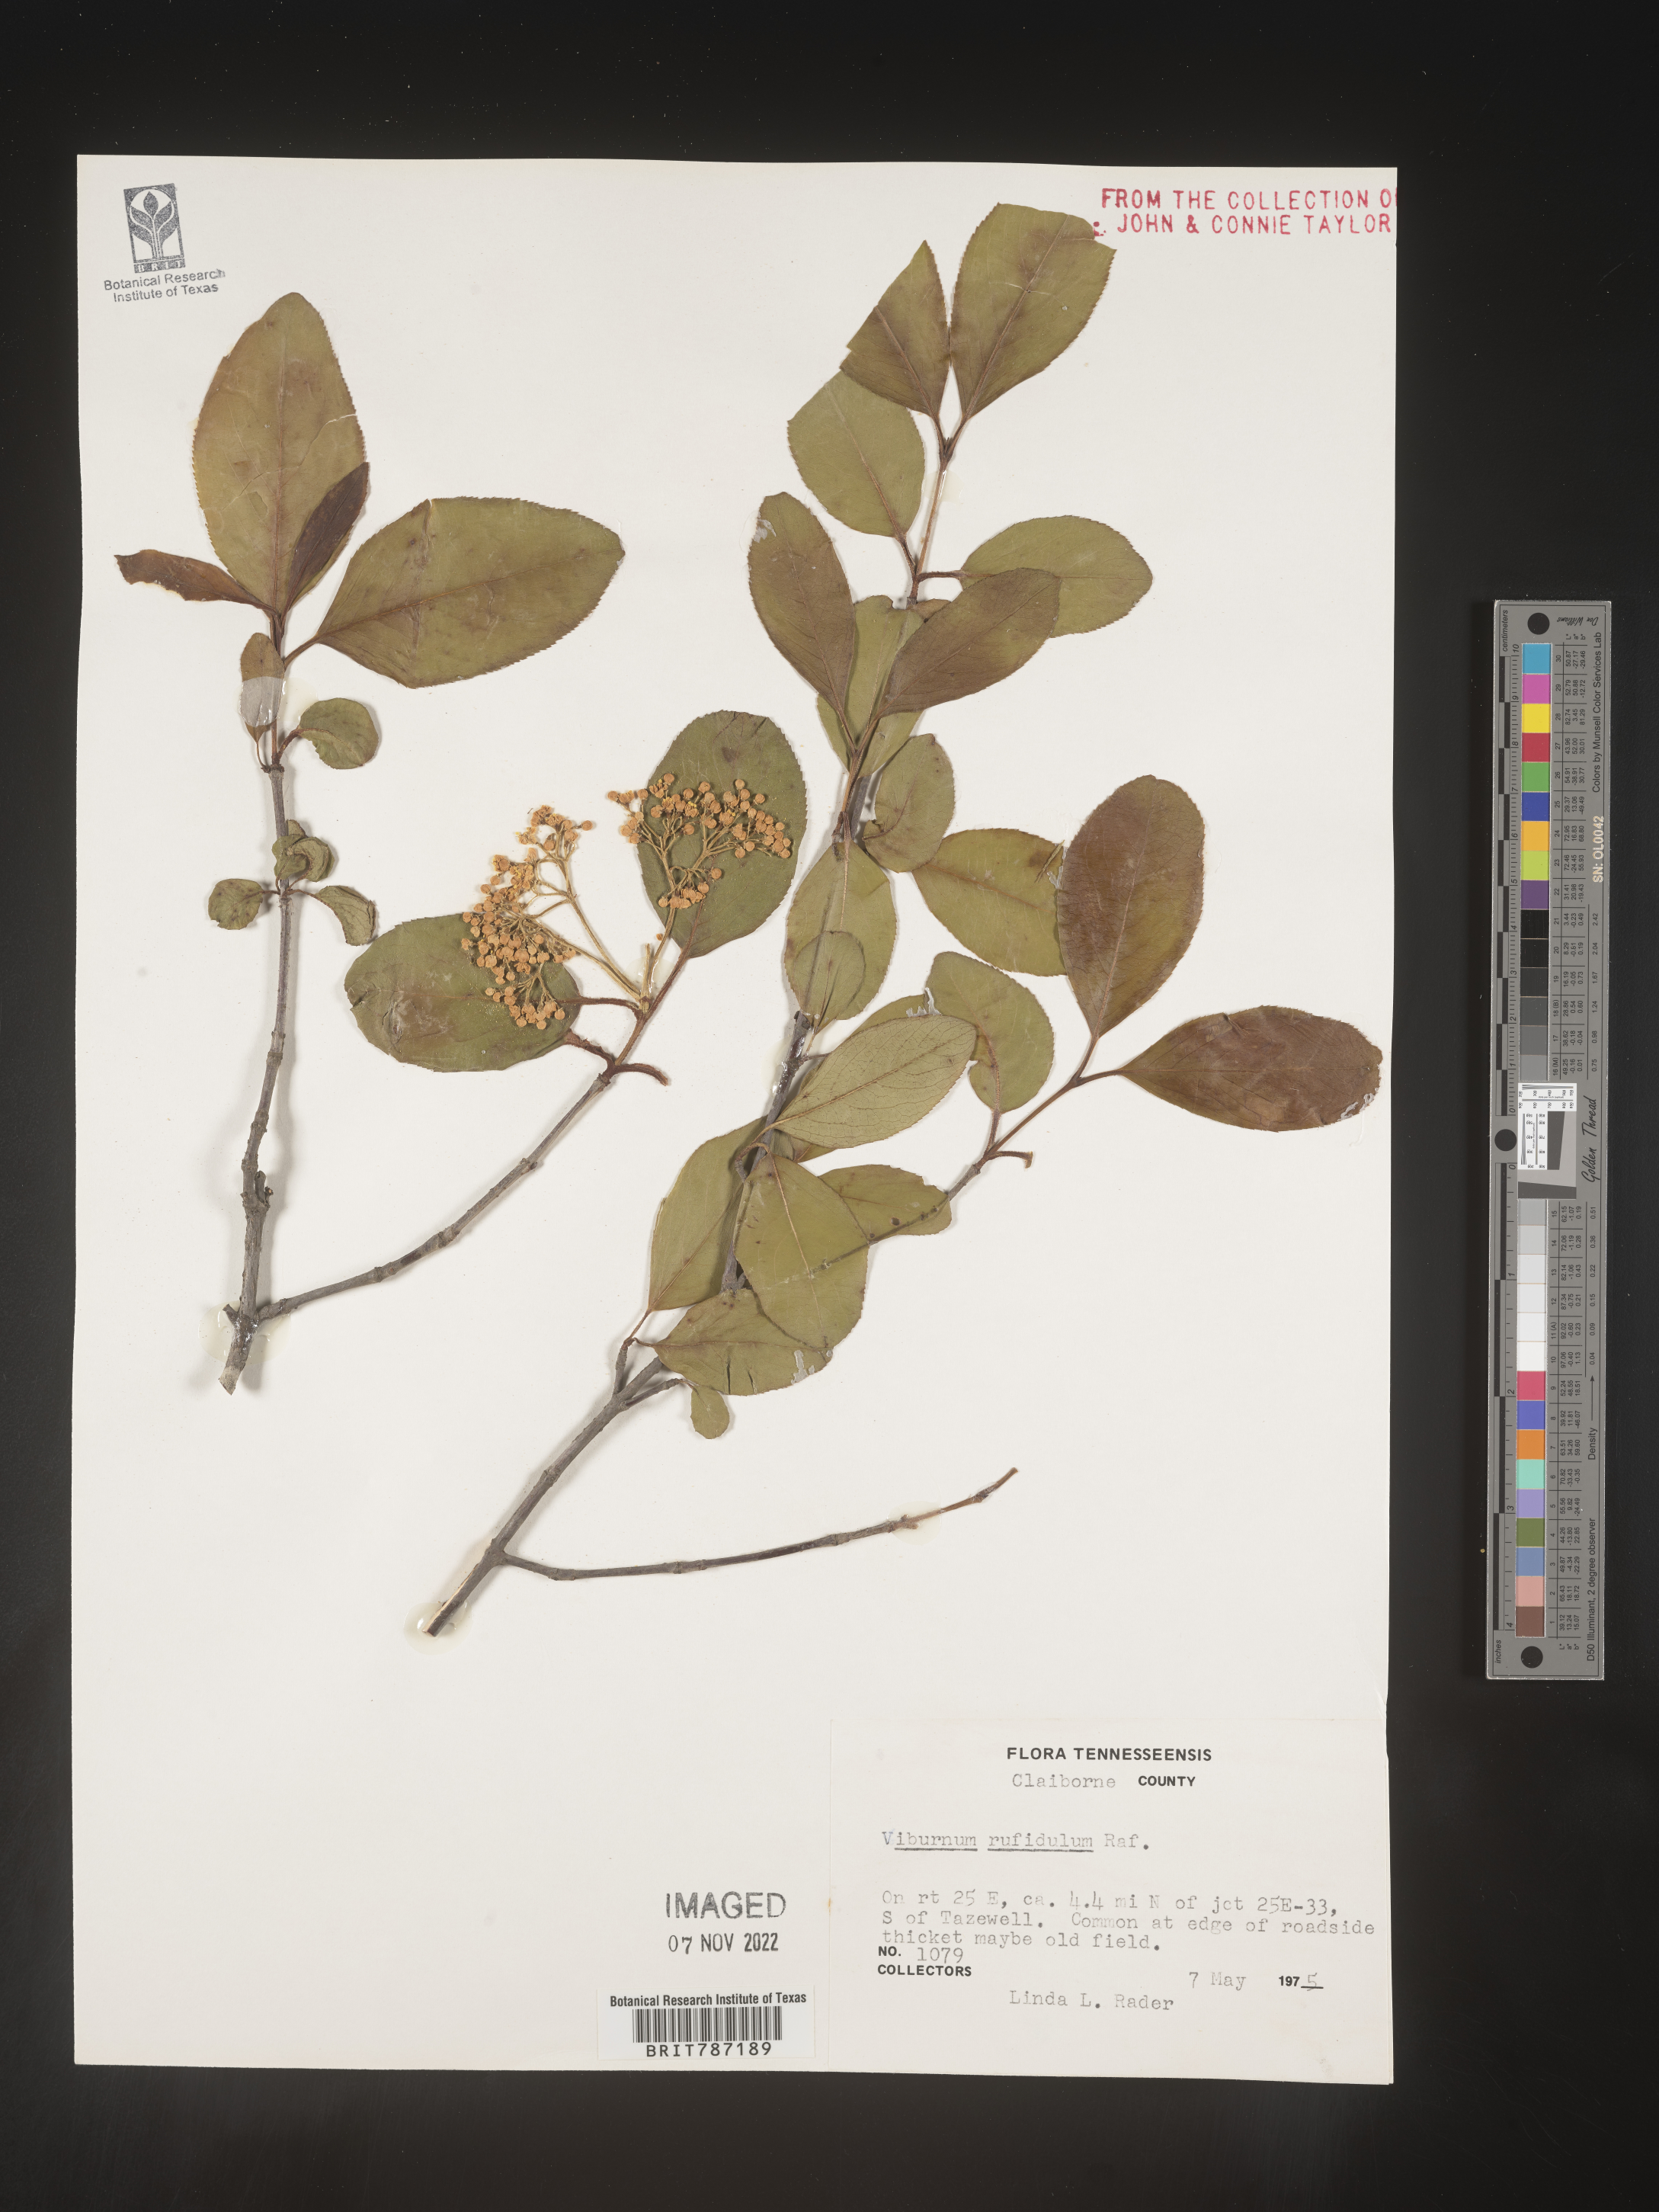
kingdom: Plantae
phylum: Tracheophyta
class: Magnoliopsida
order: Dipsacales
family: Viburnaceae
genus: Viburnum
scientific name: Viburnum rufidulum
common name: Blue haw
